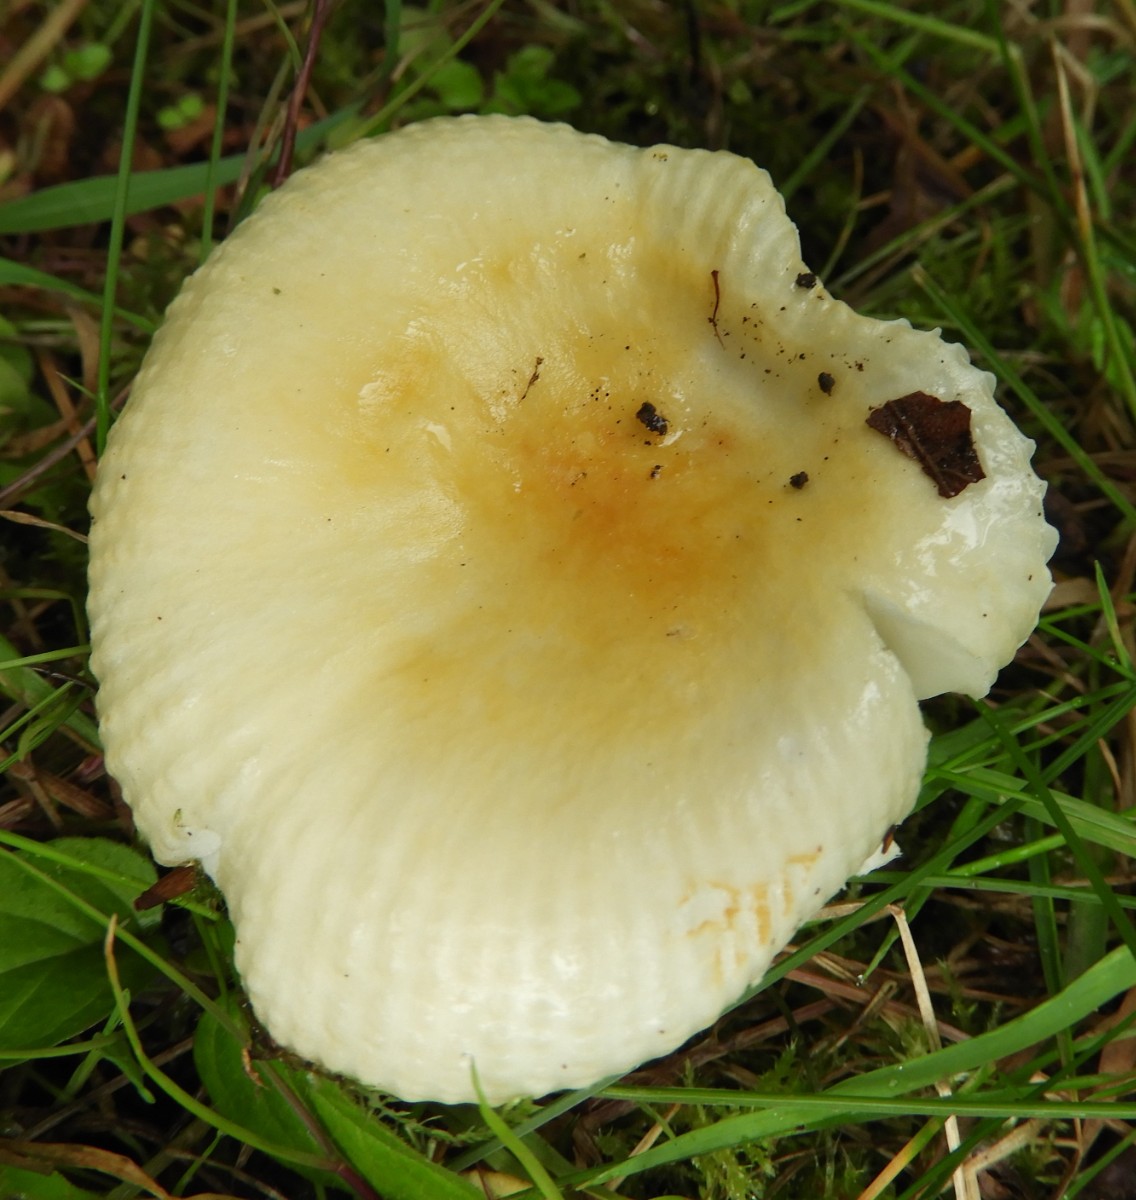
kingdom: Fungi
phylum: Basidiomycota
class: Agaricomycetes
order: Russulales
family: Russulaceae
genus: Russula
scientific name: Russula solaris
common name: sol-skørhat
